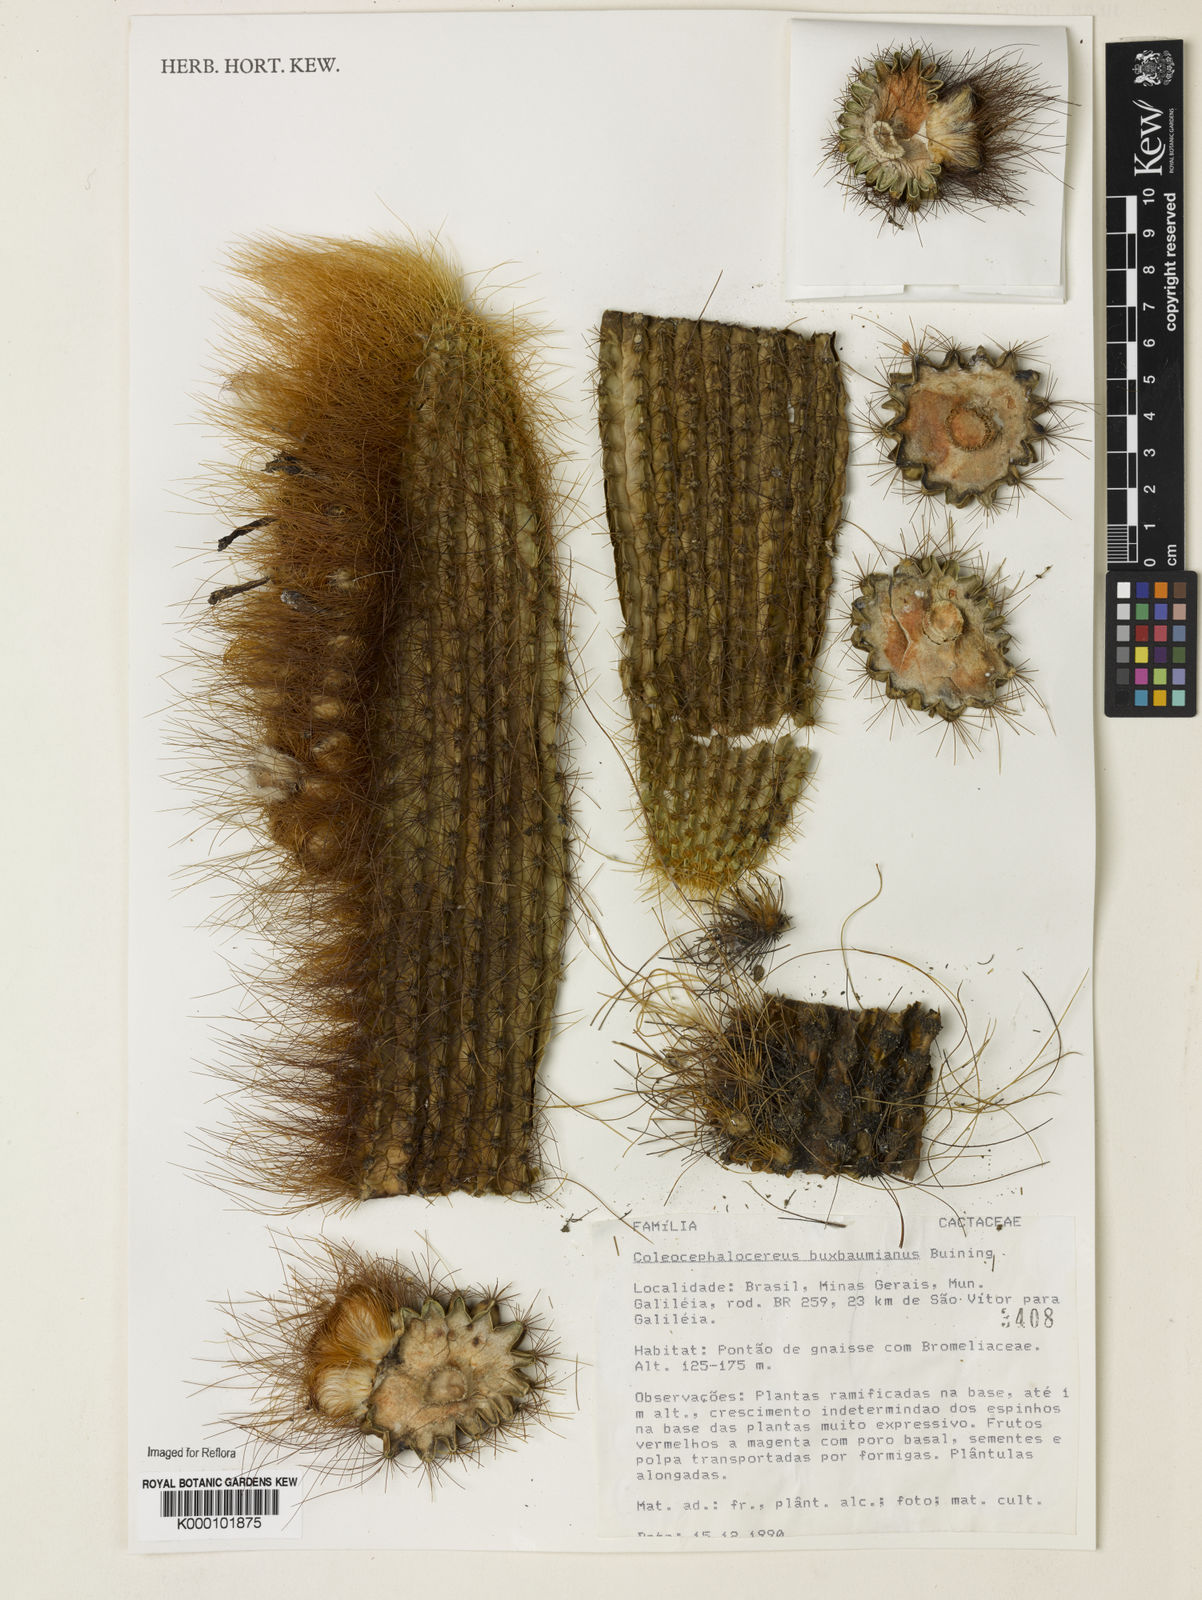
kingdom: Plantae
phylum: Tracheophyta
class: Magnoliopsida
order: Caryophyllales
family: Cactaceae
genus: Coleocephalocereus
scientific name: Coleocephalocereus buxbaumianus
